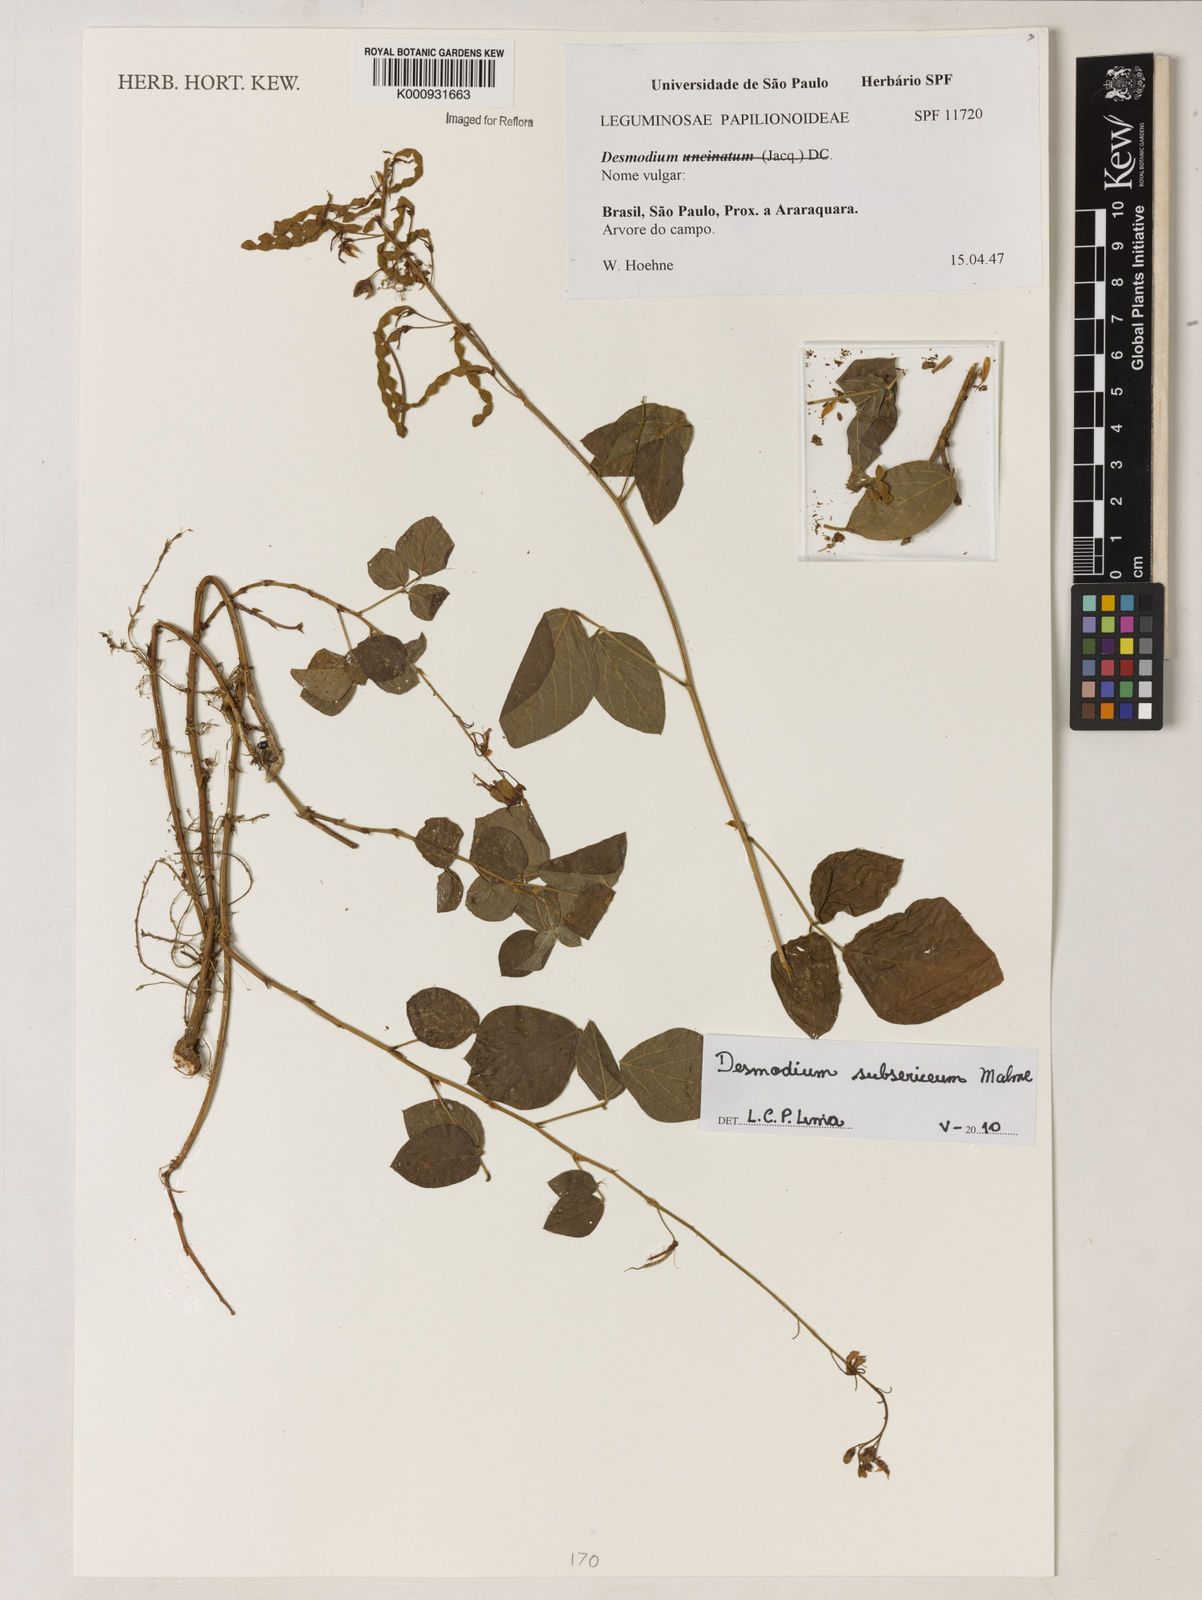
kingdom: Plantae
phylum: Tracheophyta
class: Magnoliopsida
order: Fabales
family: Fabaceae
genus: Desmodium
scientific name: Desmodium subsericeum
